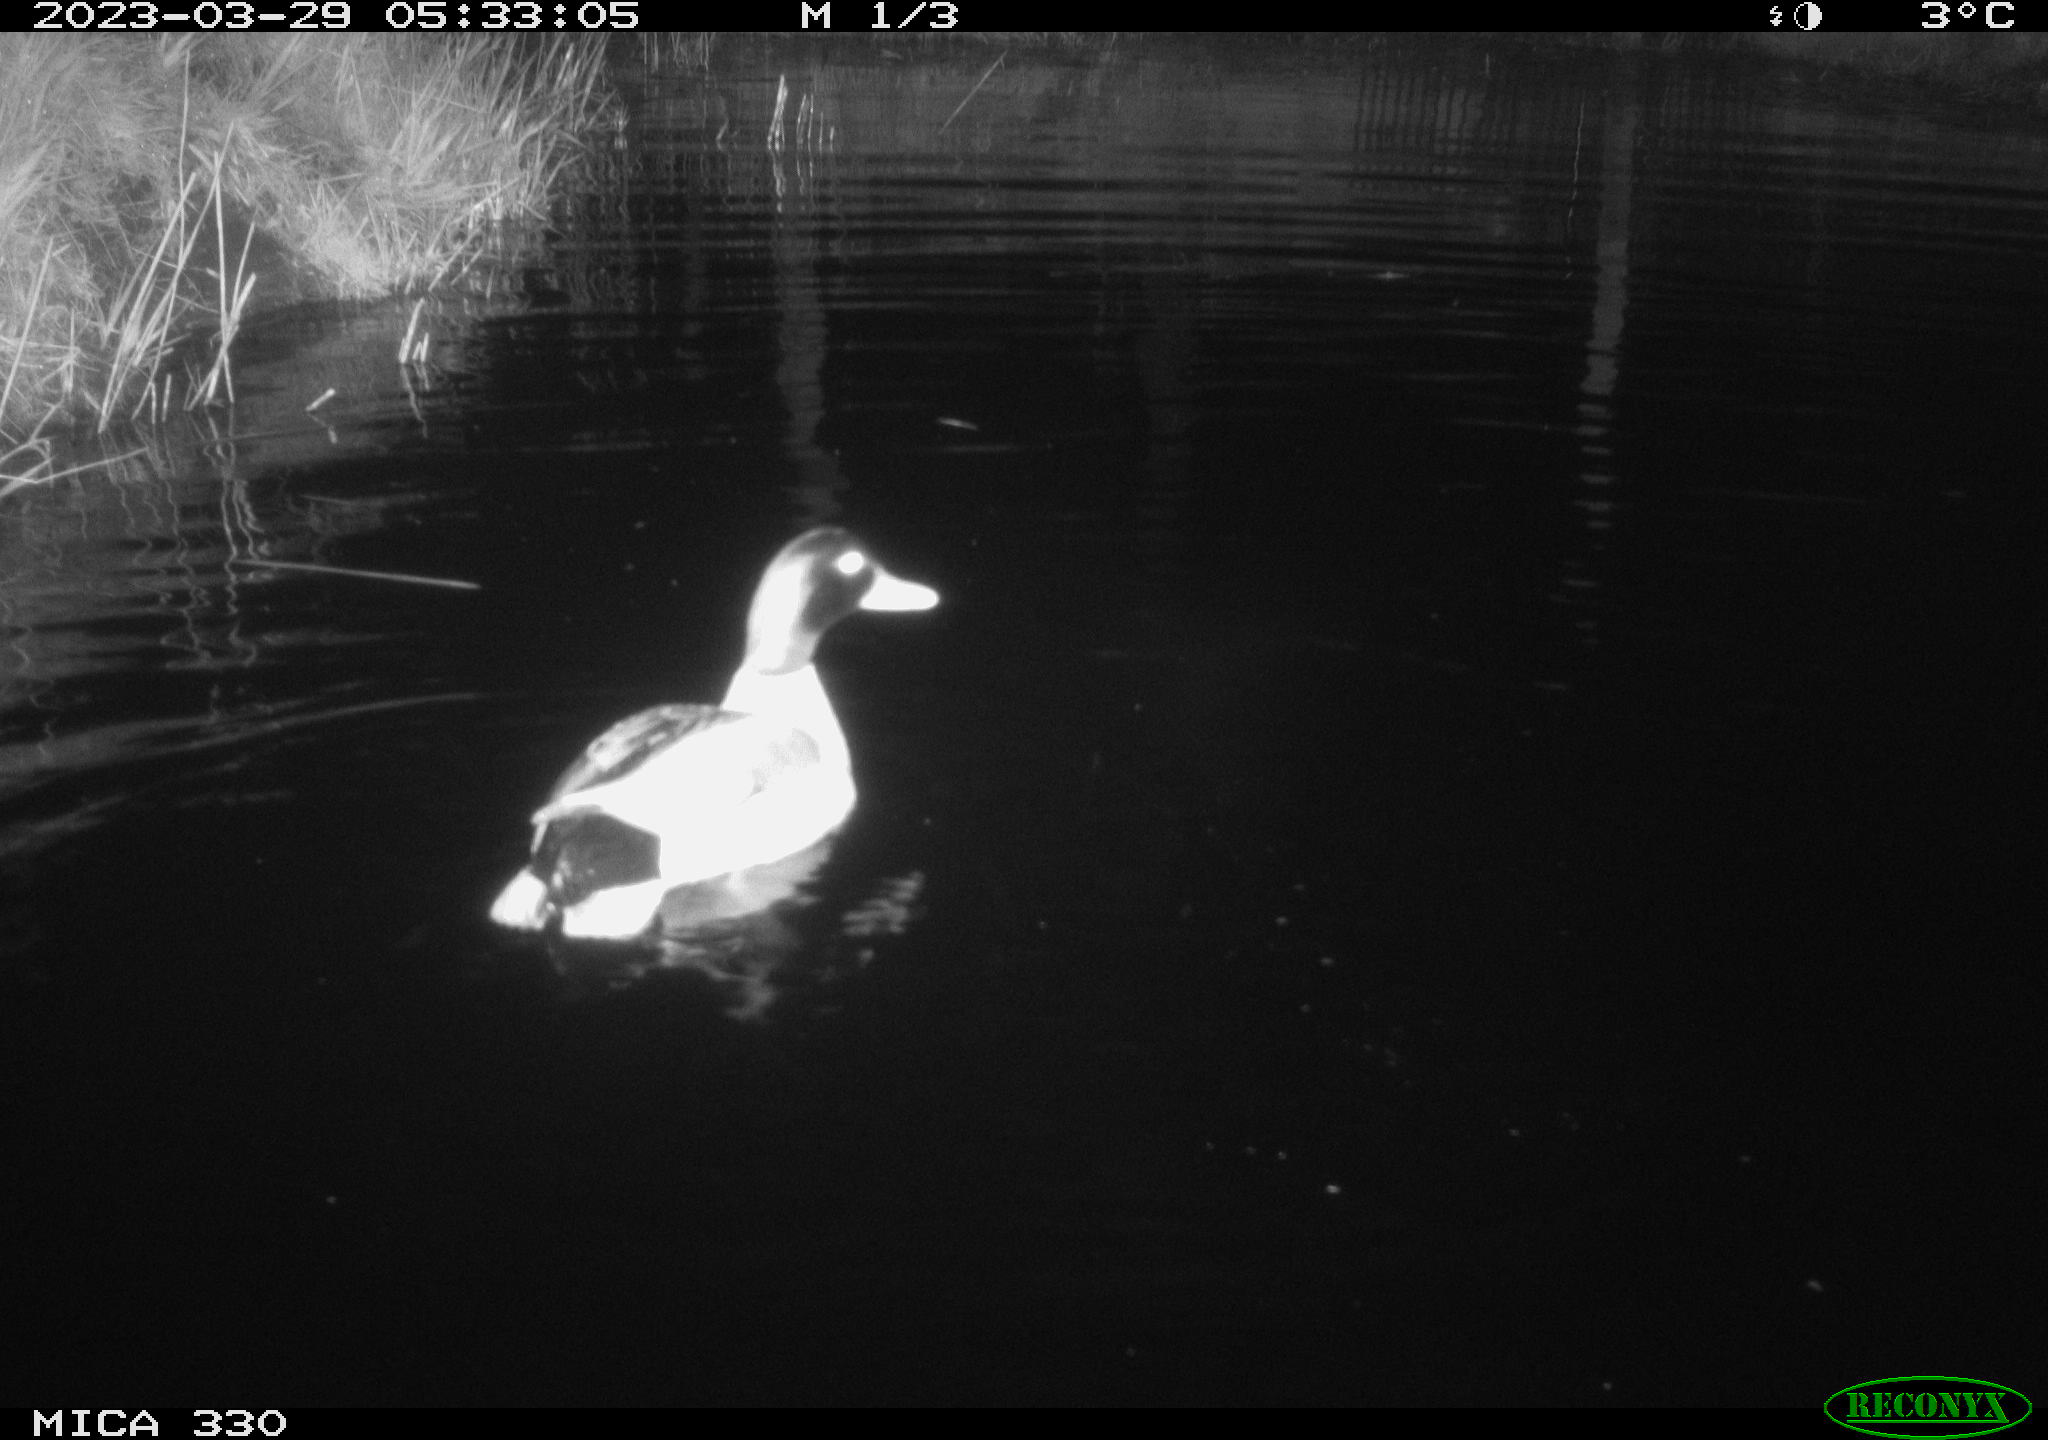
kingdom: Animalia
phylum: Chordata
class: Aves
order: Anseriformes
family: Anatidae
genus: Anas
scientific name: Anas
